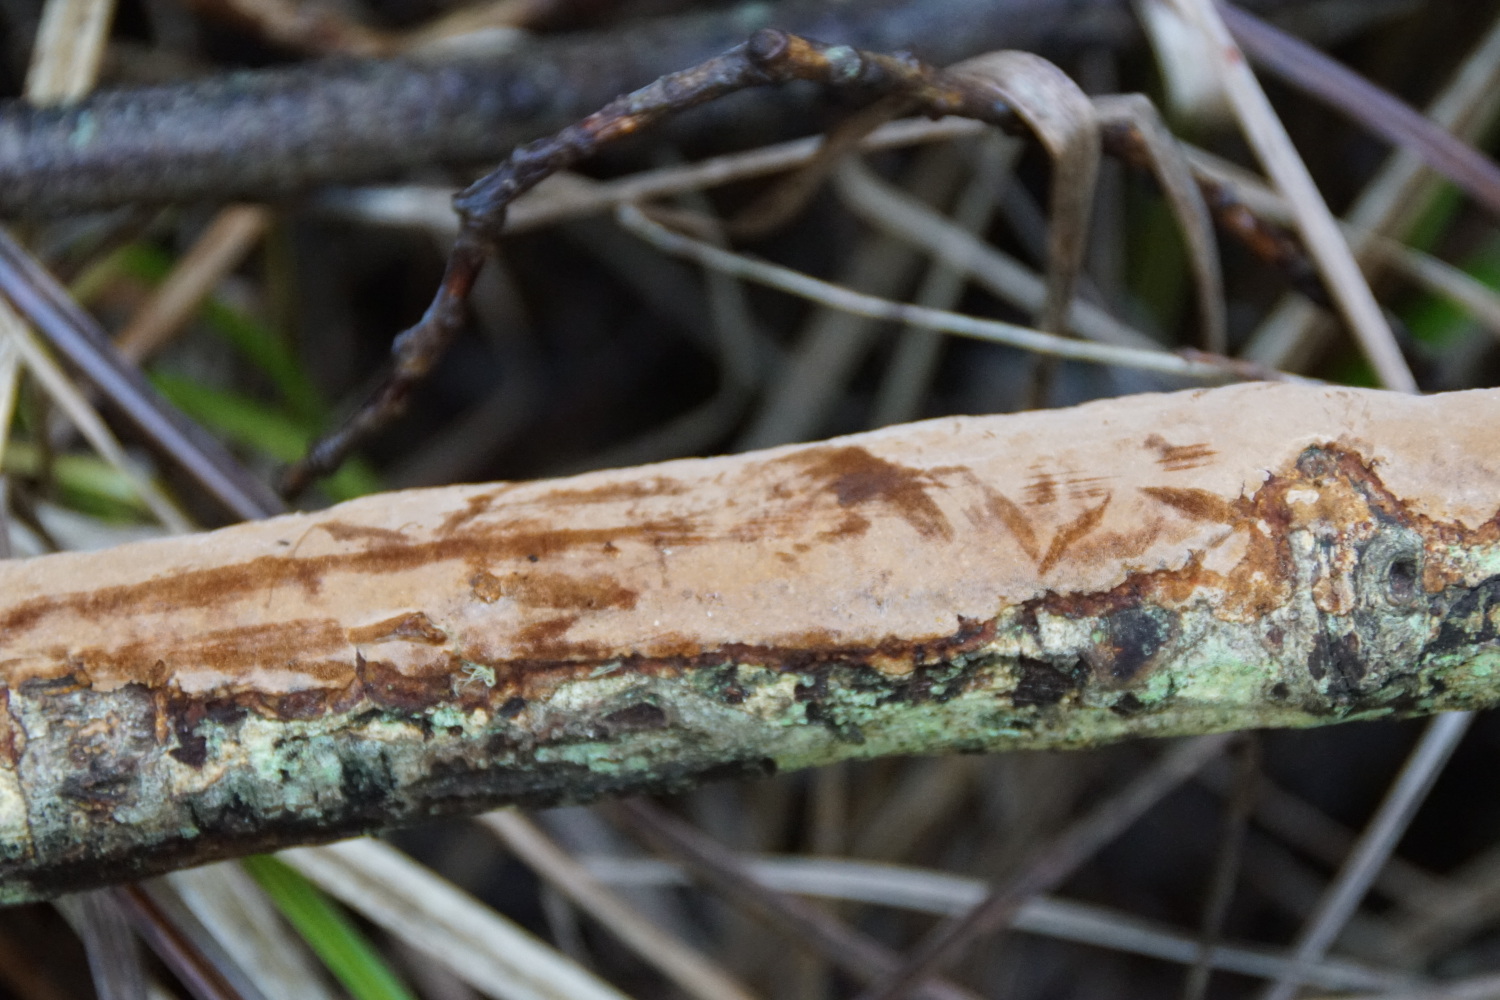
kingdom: Fungi
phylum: Basidiomycota
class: Agaricomycetes
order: Hymenochaetales
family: Hymenochaetaceae
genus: Fuscoporia
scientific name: Fuscoporia ferrea
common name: skorpe-ildporesvamp
